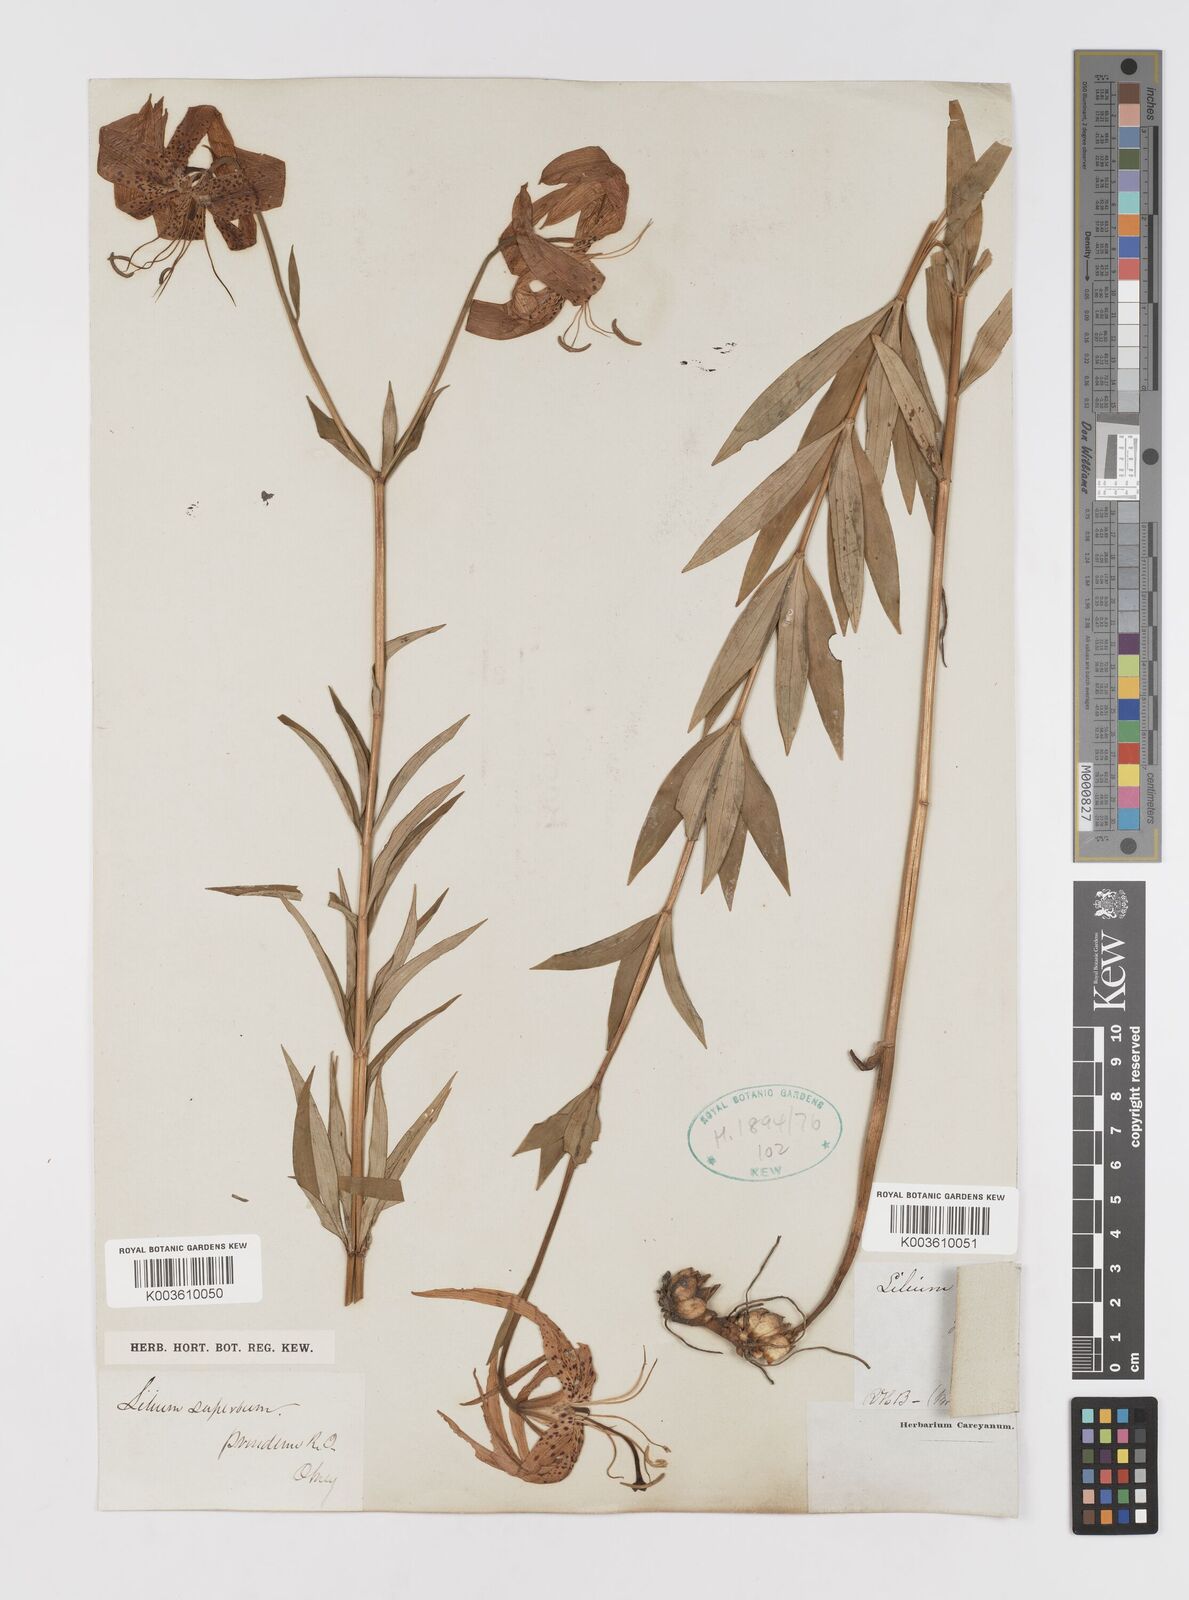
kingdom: Plantae
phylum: Tracheophyta
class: Liliopsida
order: Liliales
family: Liliaceae
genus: Lilium
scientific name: Lilium superbum
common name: American turk's-cap lily
